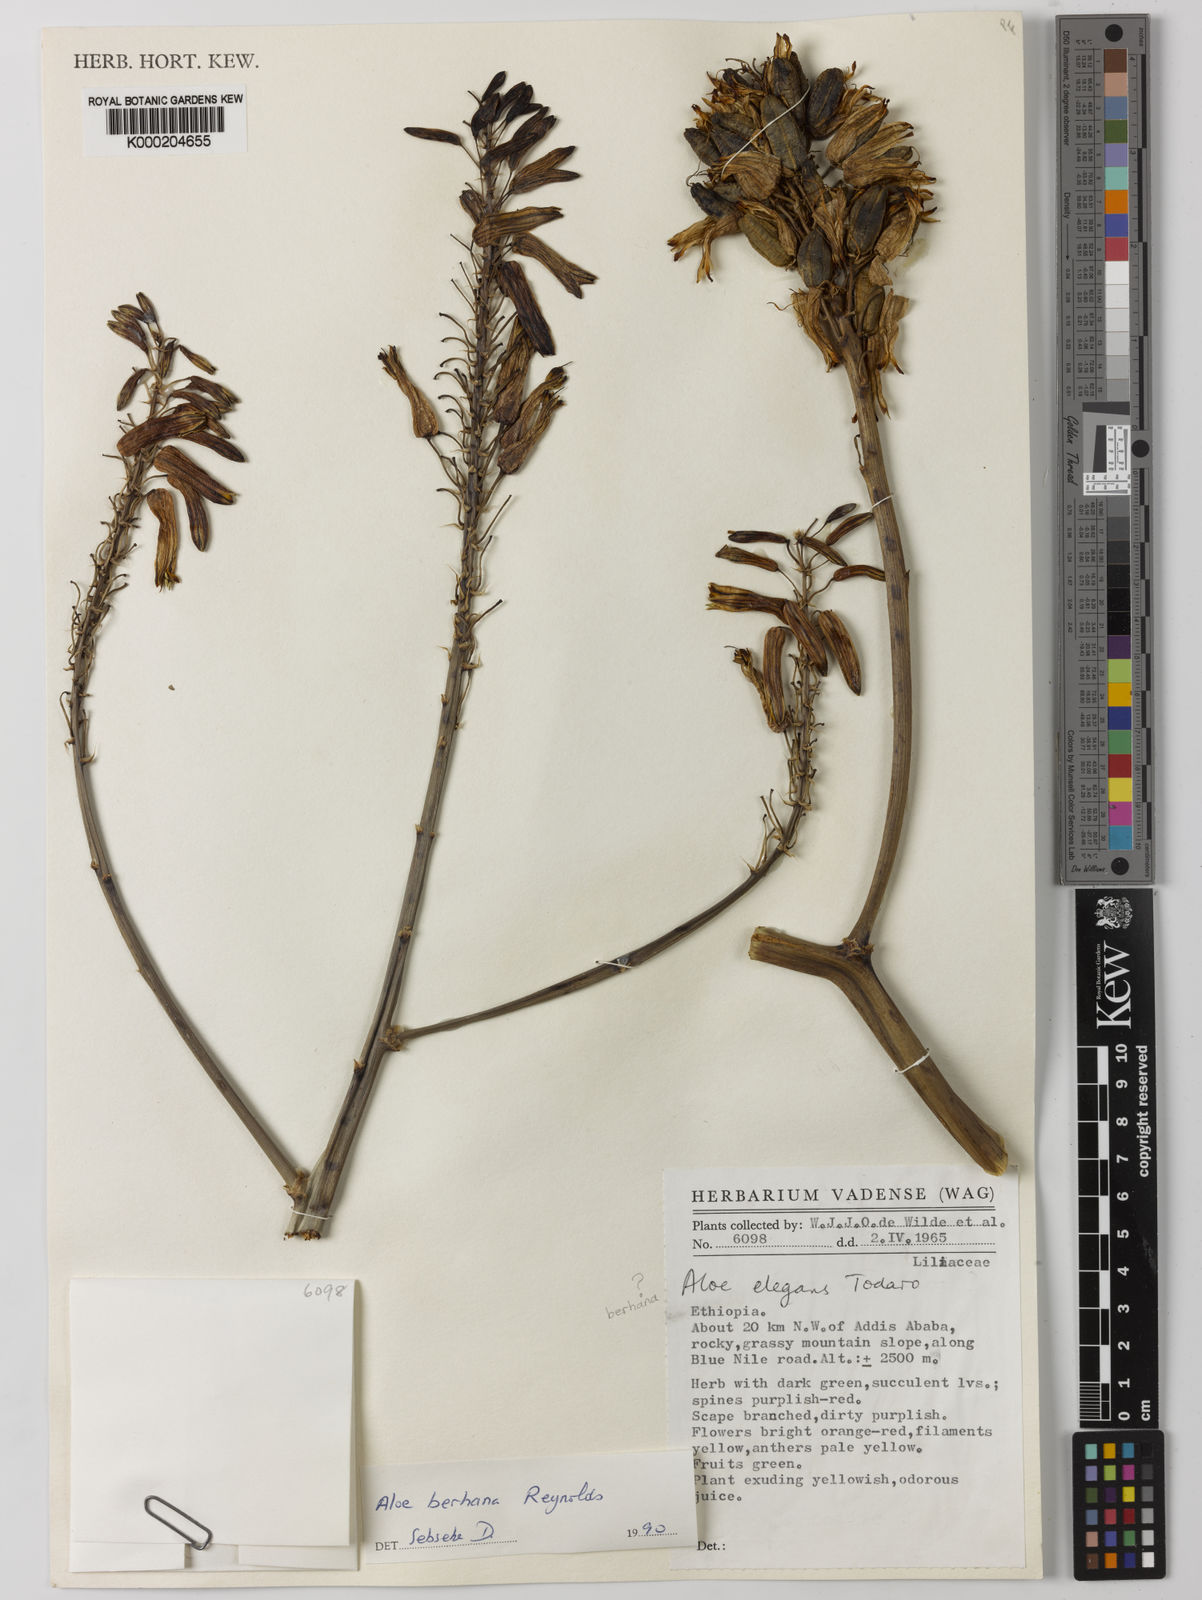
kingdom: Plantae
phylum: Tracheophyta
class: Liliopsida
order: Asparagales
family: Asphodelaceae
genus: Aloe
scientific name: Aloe debrana
